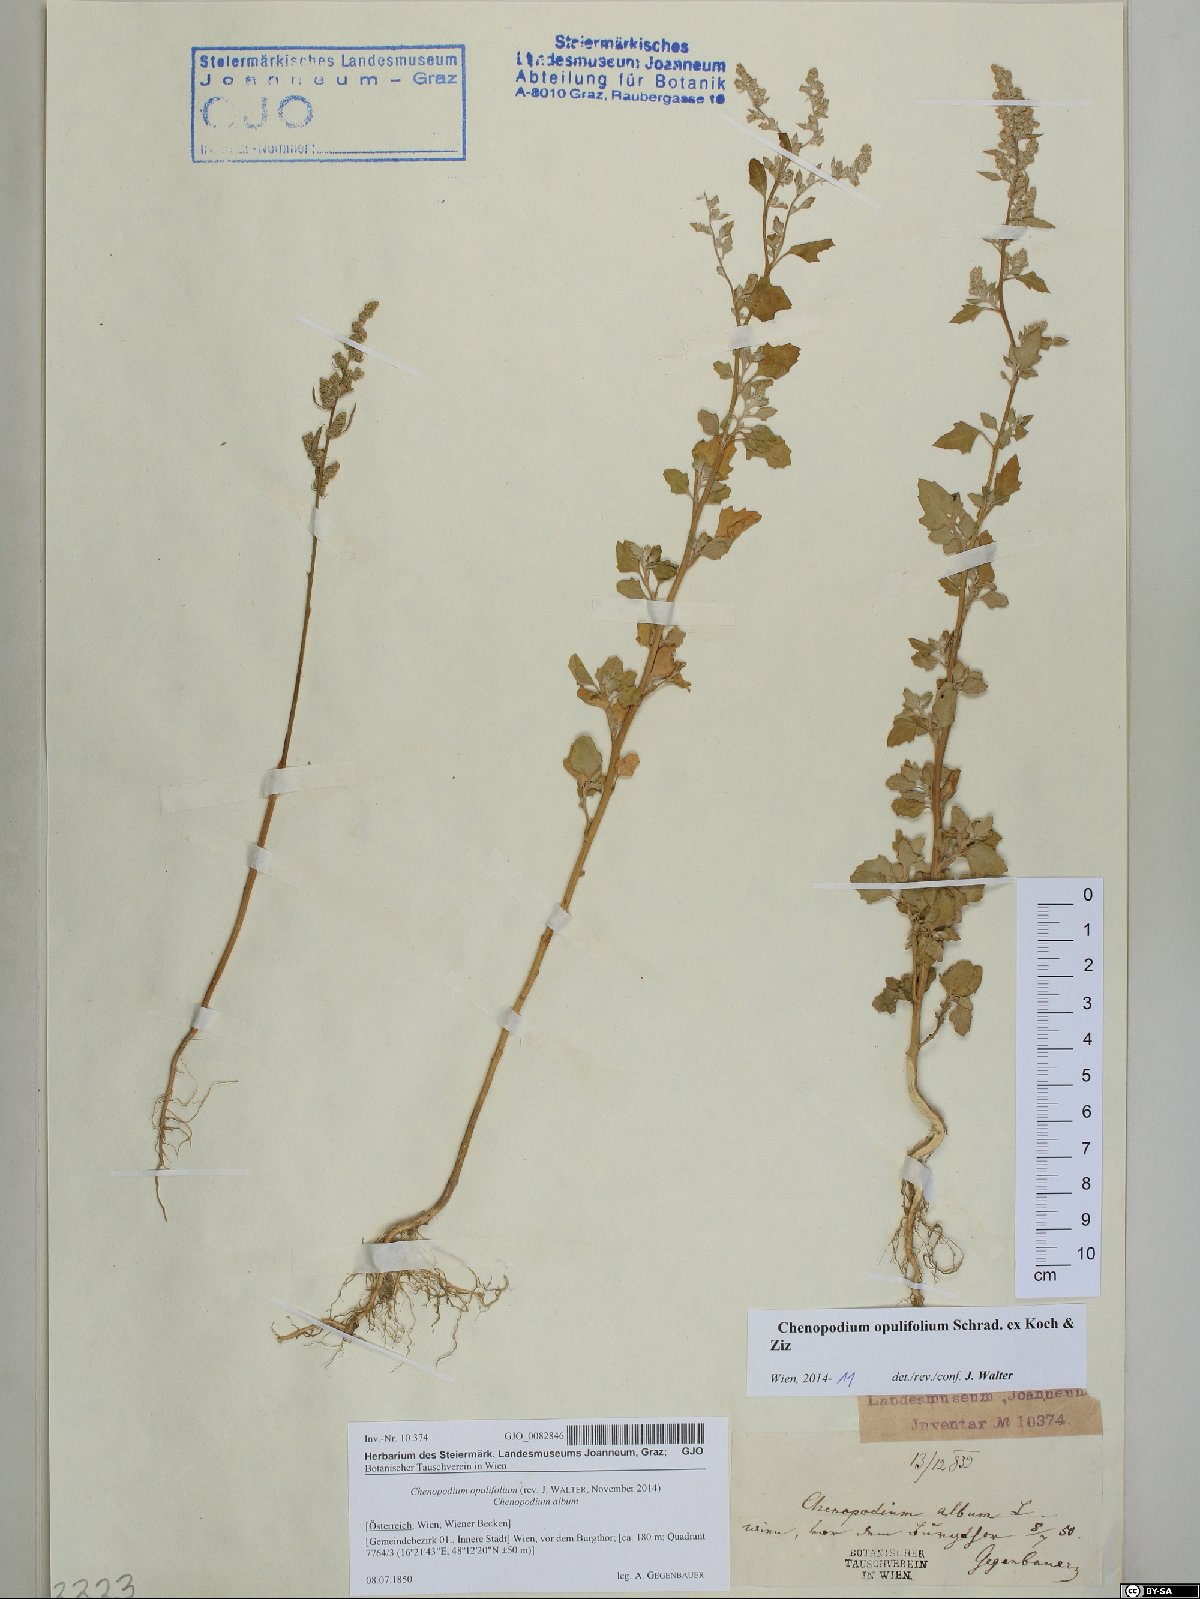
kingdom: Plantae
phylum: Tracheophyta
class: Magnoliopsida
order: Caryophyllales
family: Amaranthaceae
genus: Chenopodium
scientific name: Chenopodium opulifolium
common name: Grey goosefoot
